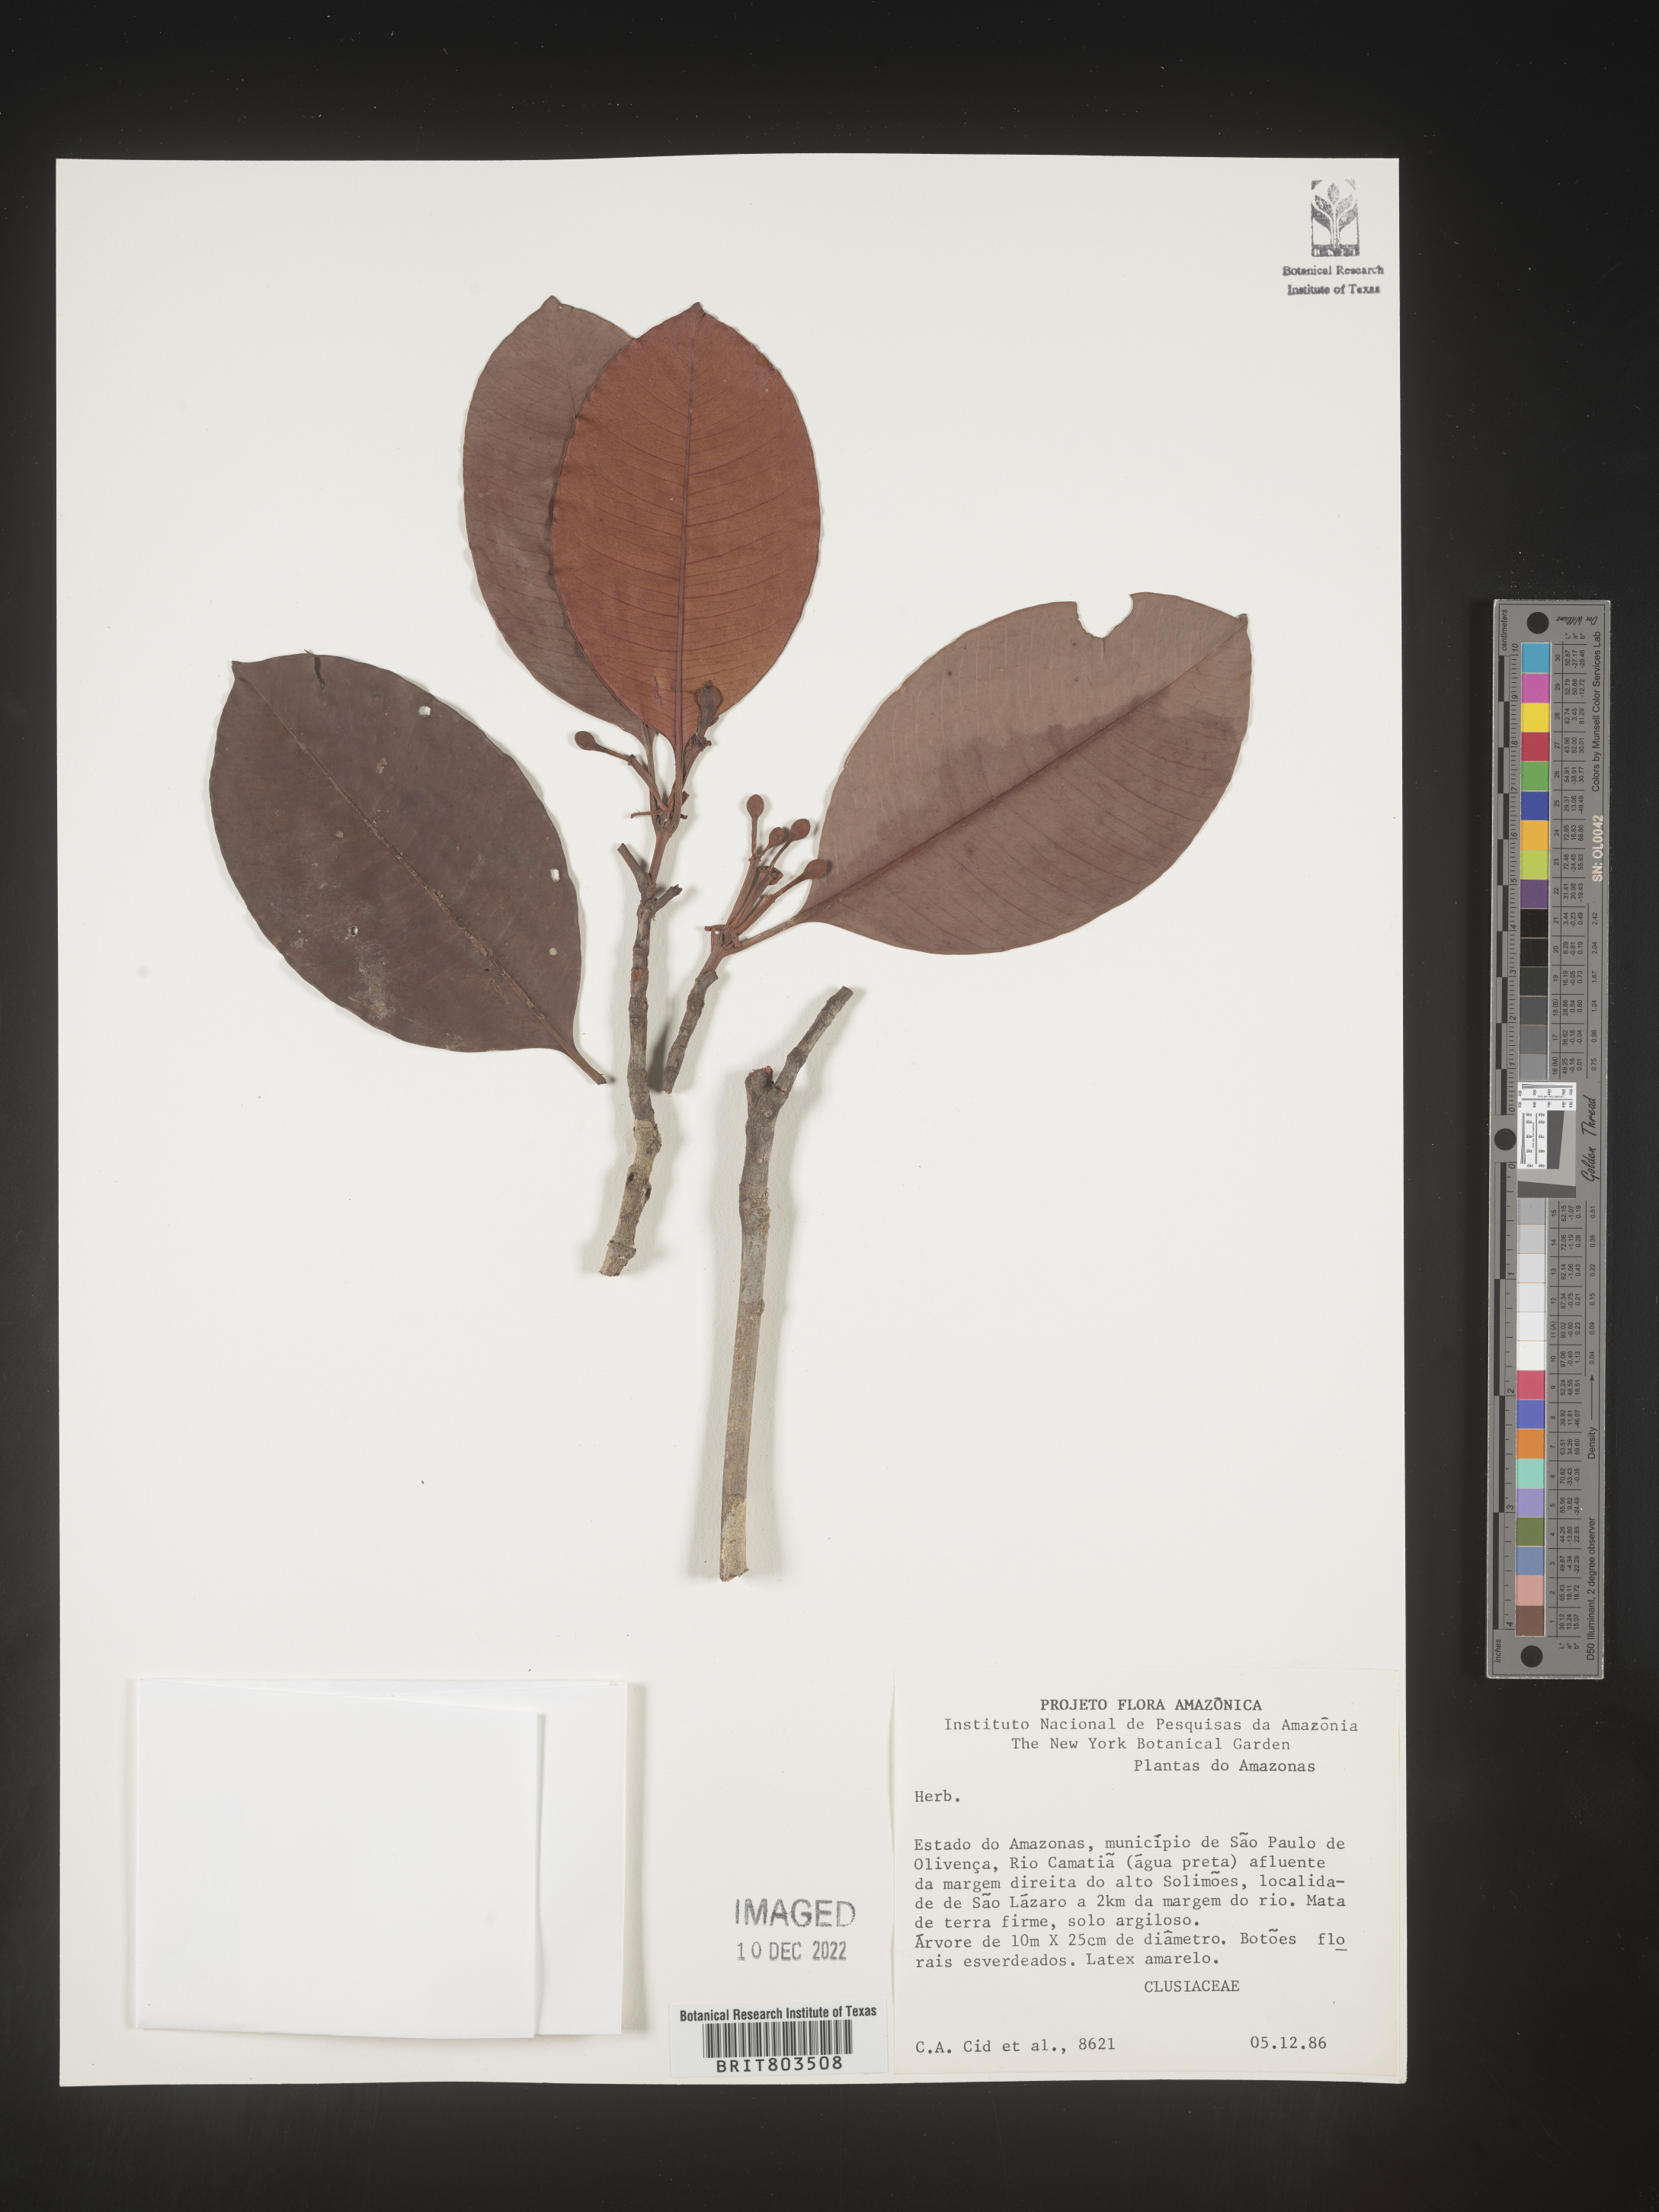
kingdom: Plantae
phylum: Tracheophyta
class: Magnoliopsida
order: Malpighiales
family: Clusiaceae
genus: Tovomita
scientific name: Tovomita
